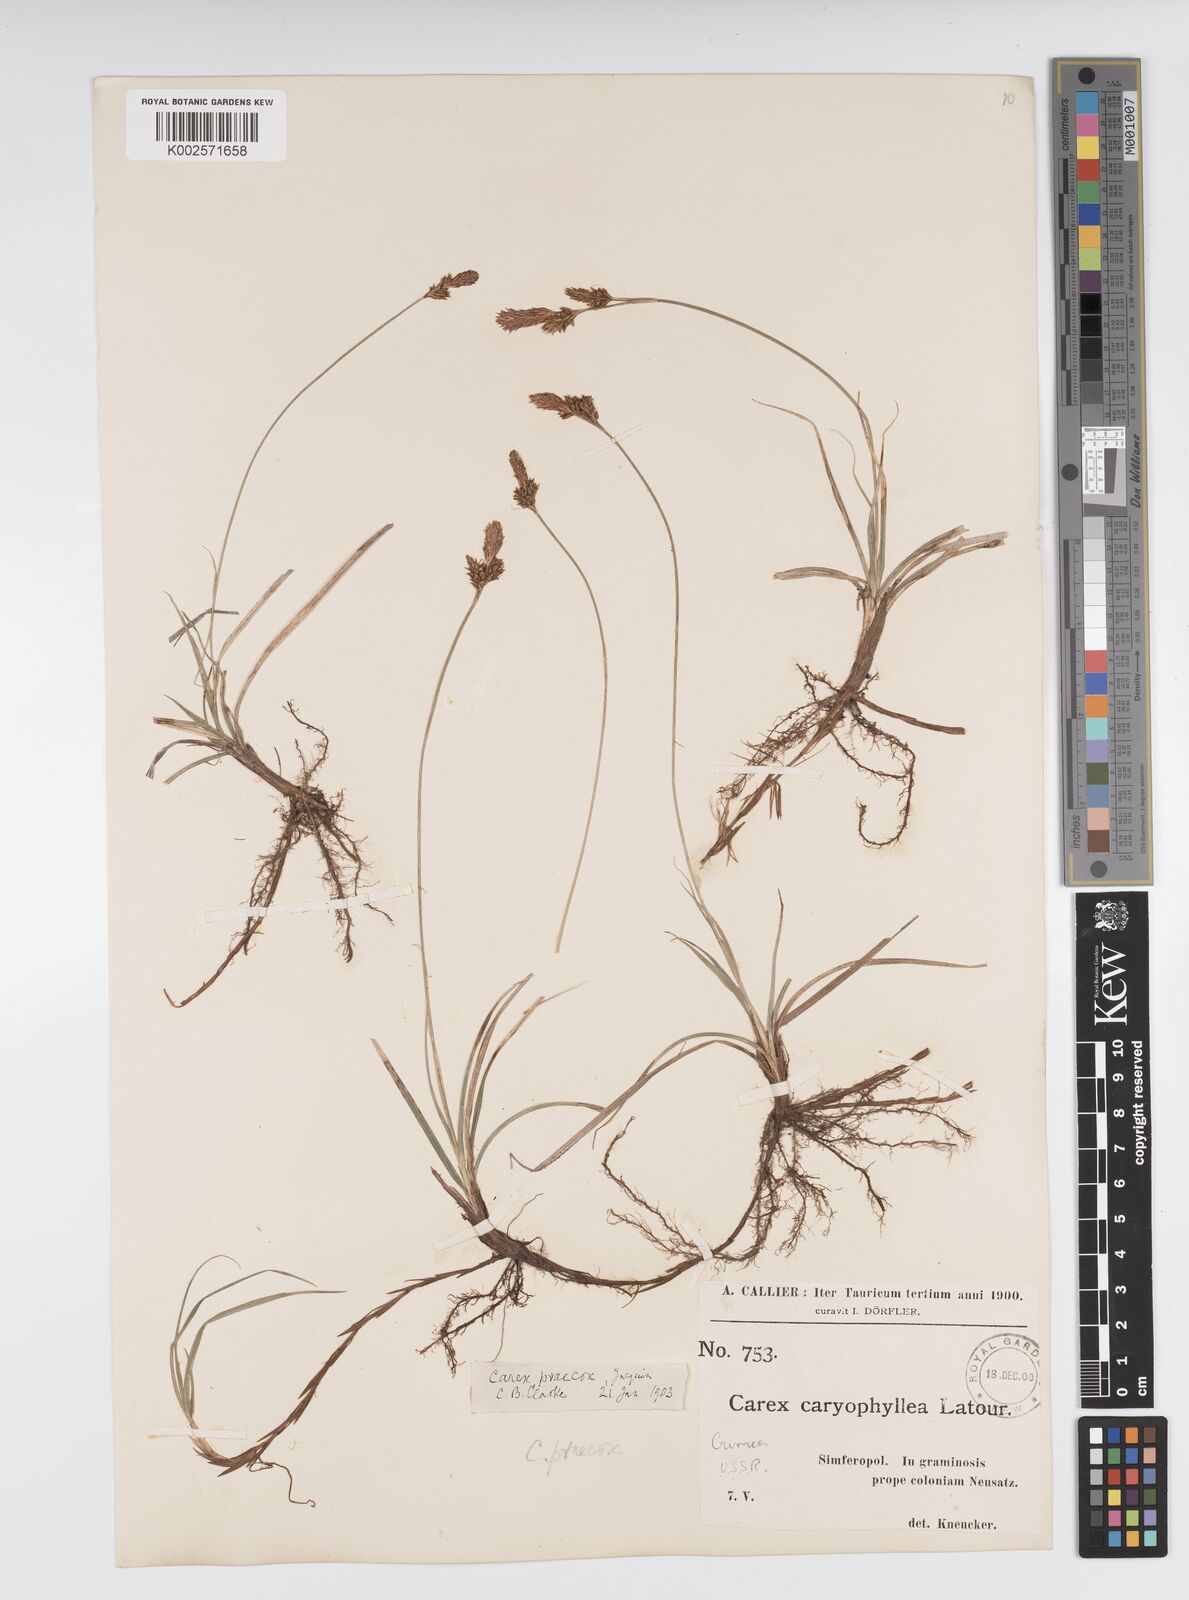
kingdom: Plantae
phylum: Tracheophyta
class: Liliopsida
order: Poales
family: Cyperaceae
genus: Carex
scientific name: Carex caryophyllea
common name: Spring sedge
